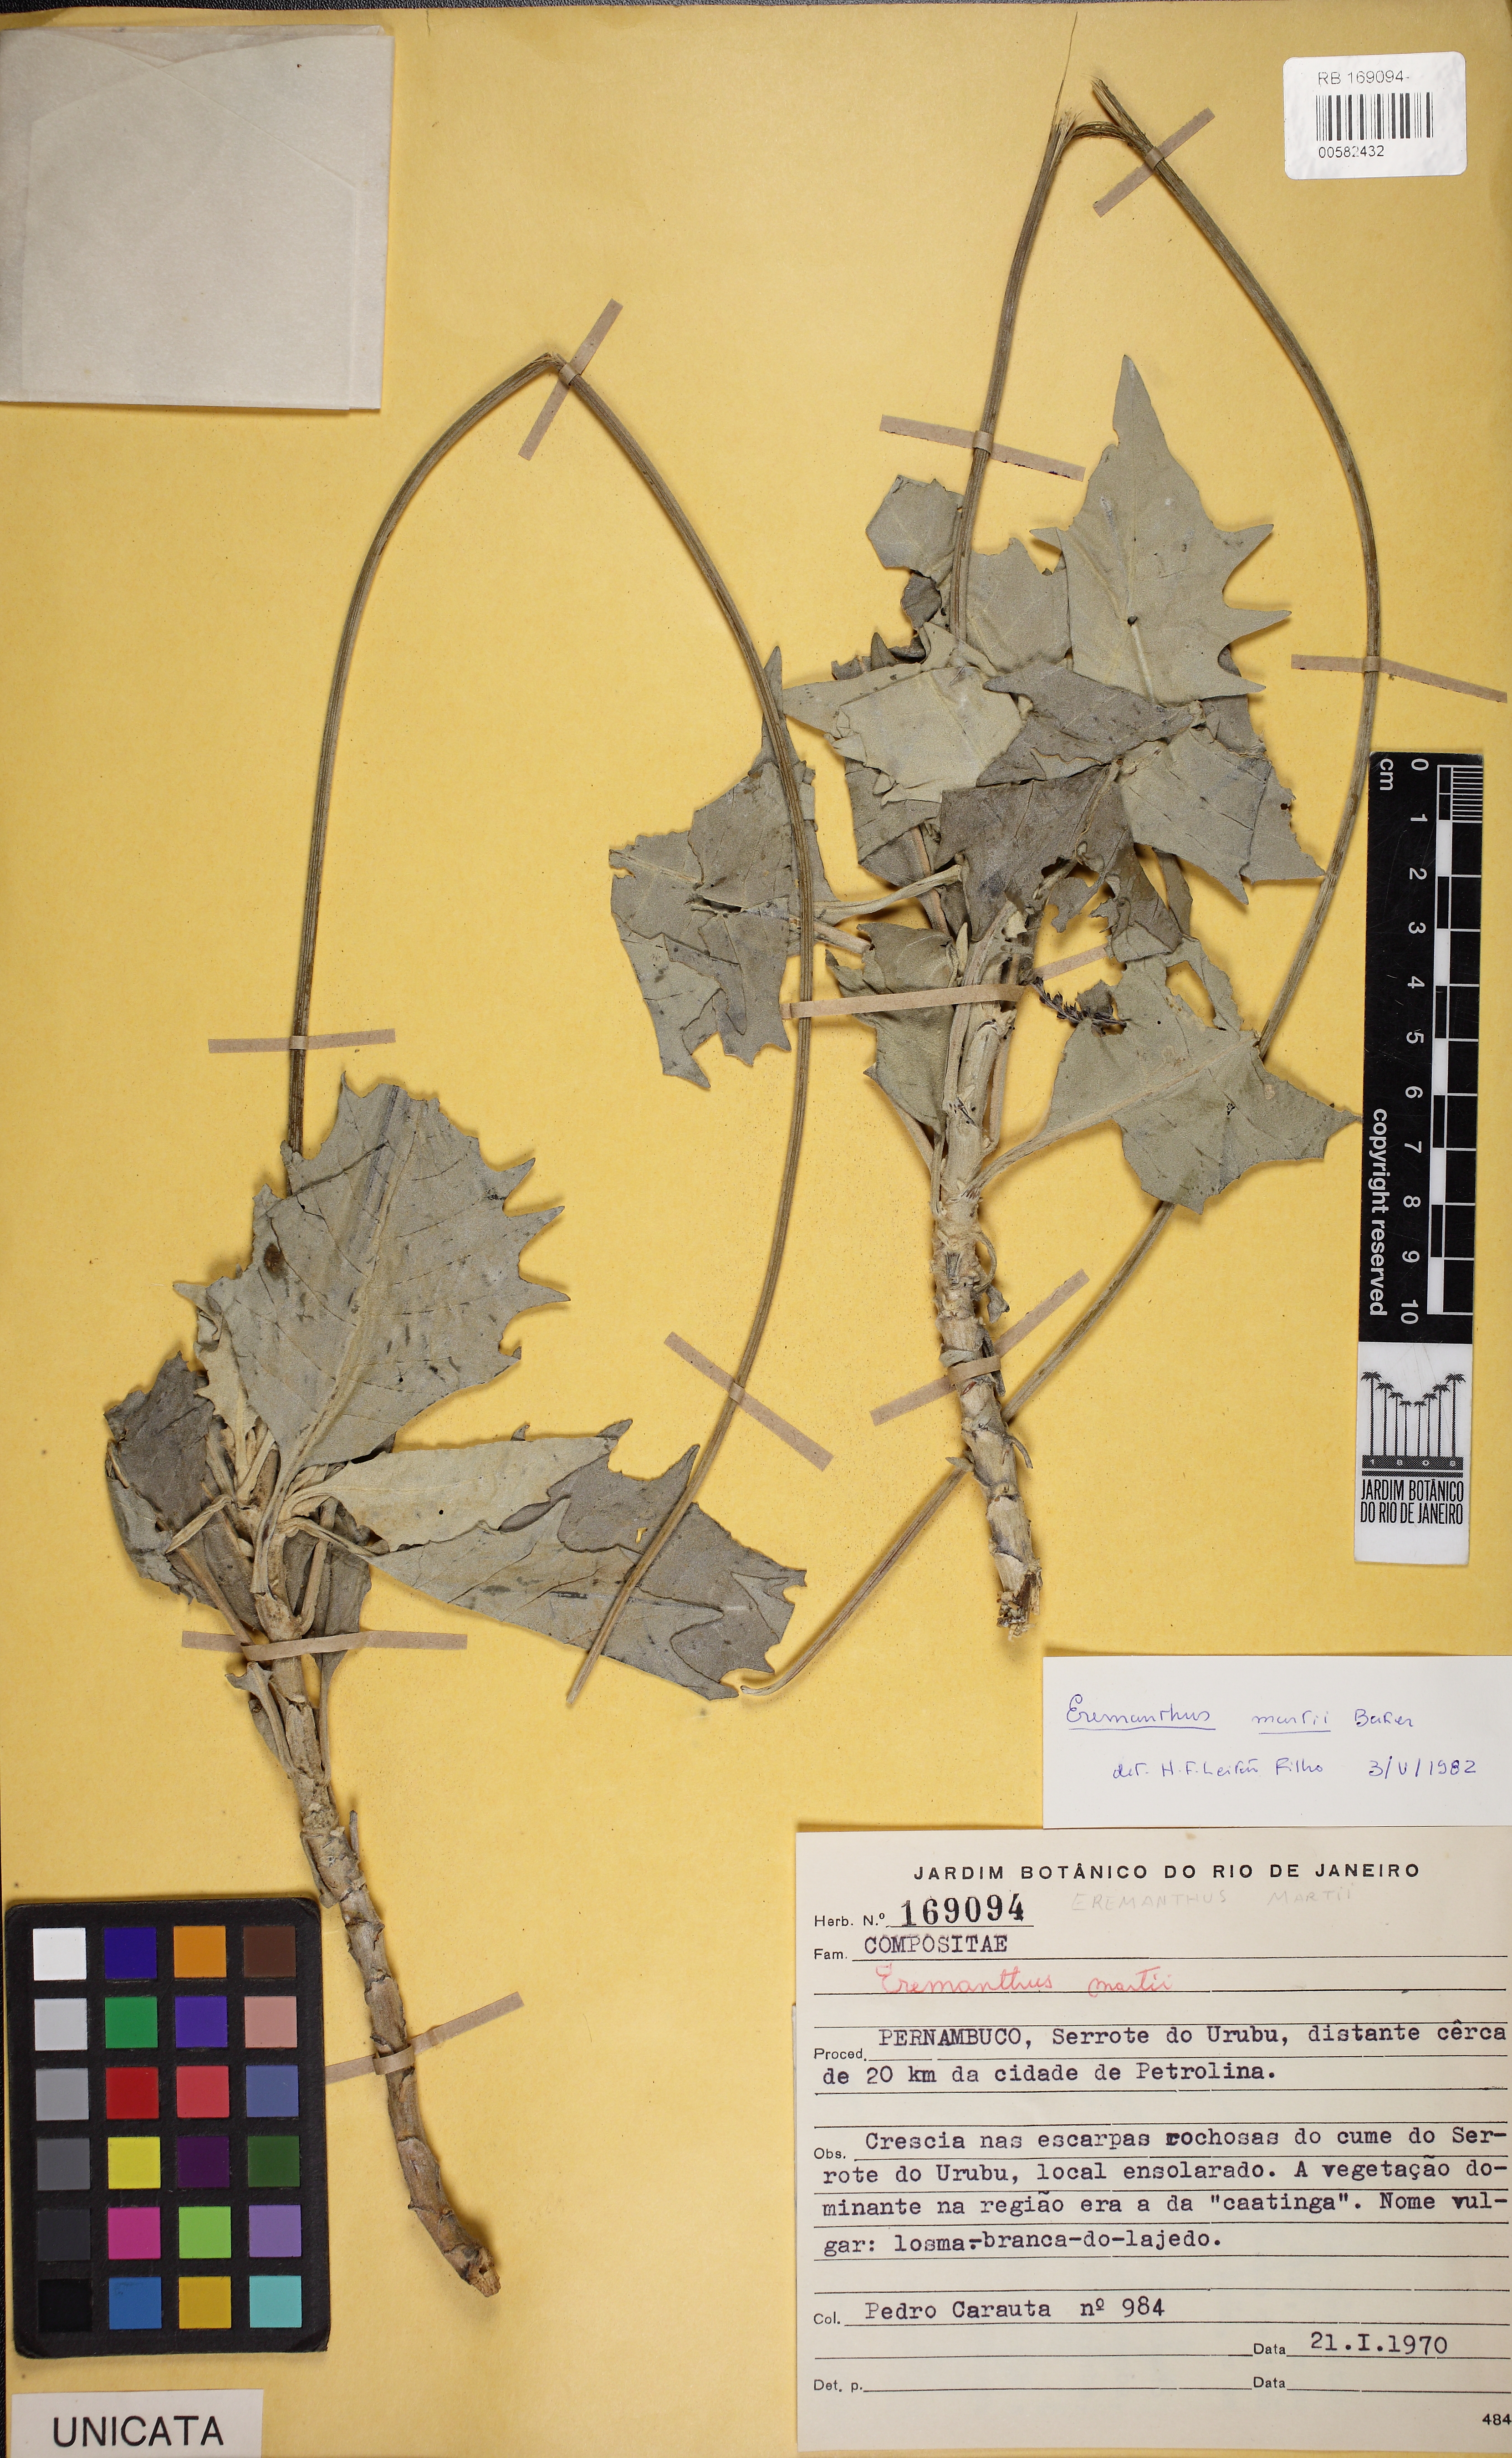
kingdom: Plantae
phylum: Tracheophyta
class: Magnoliopsida
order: Asterales
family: Asteraceae
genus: Chresta
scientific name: Chresta martii
